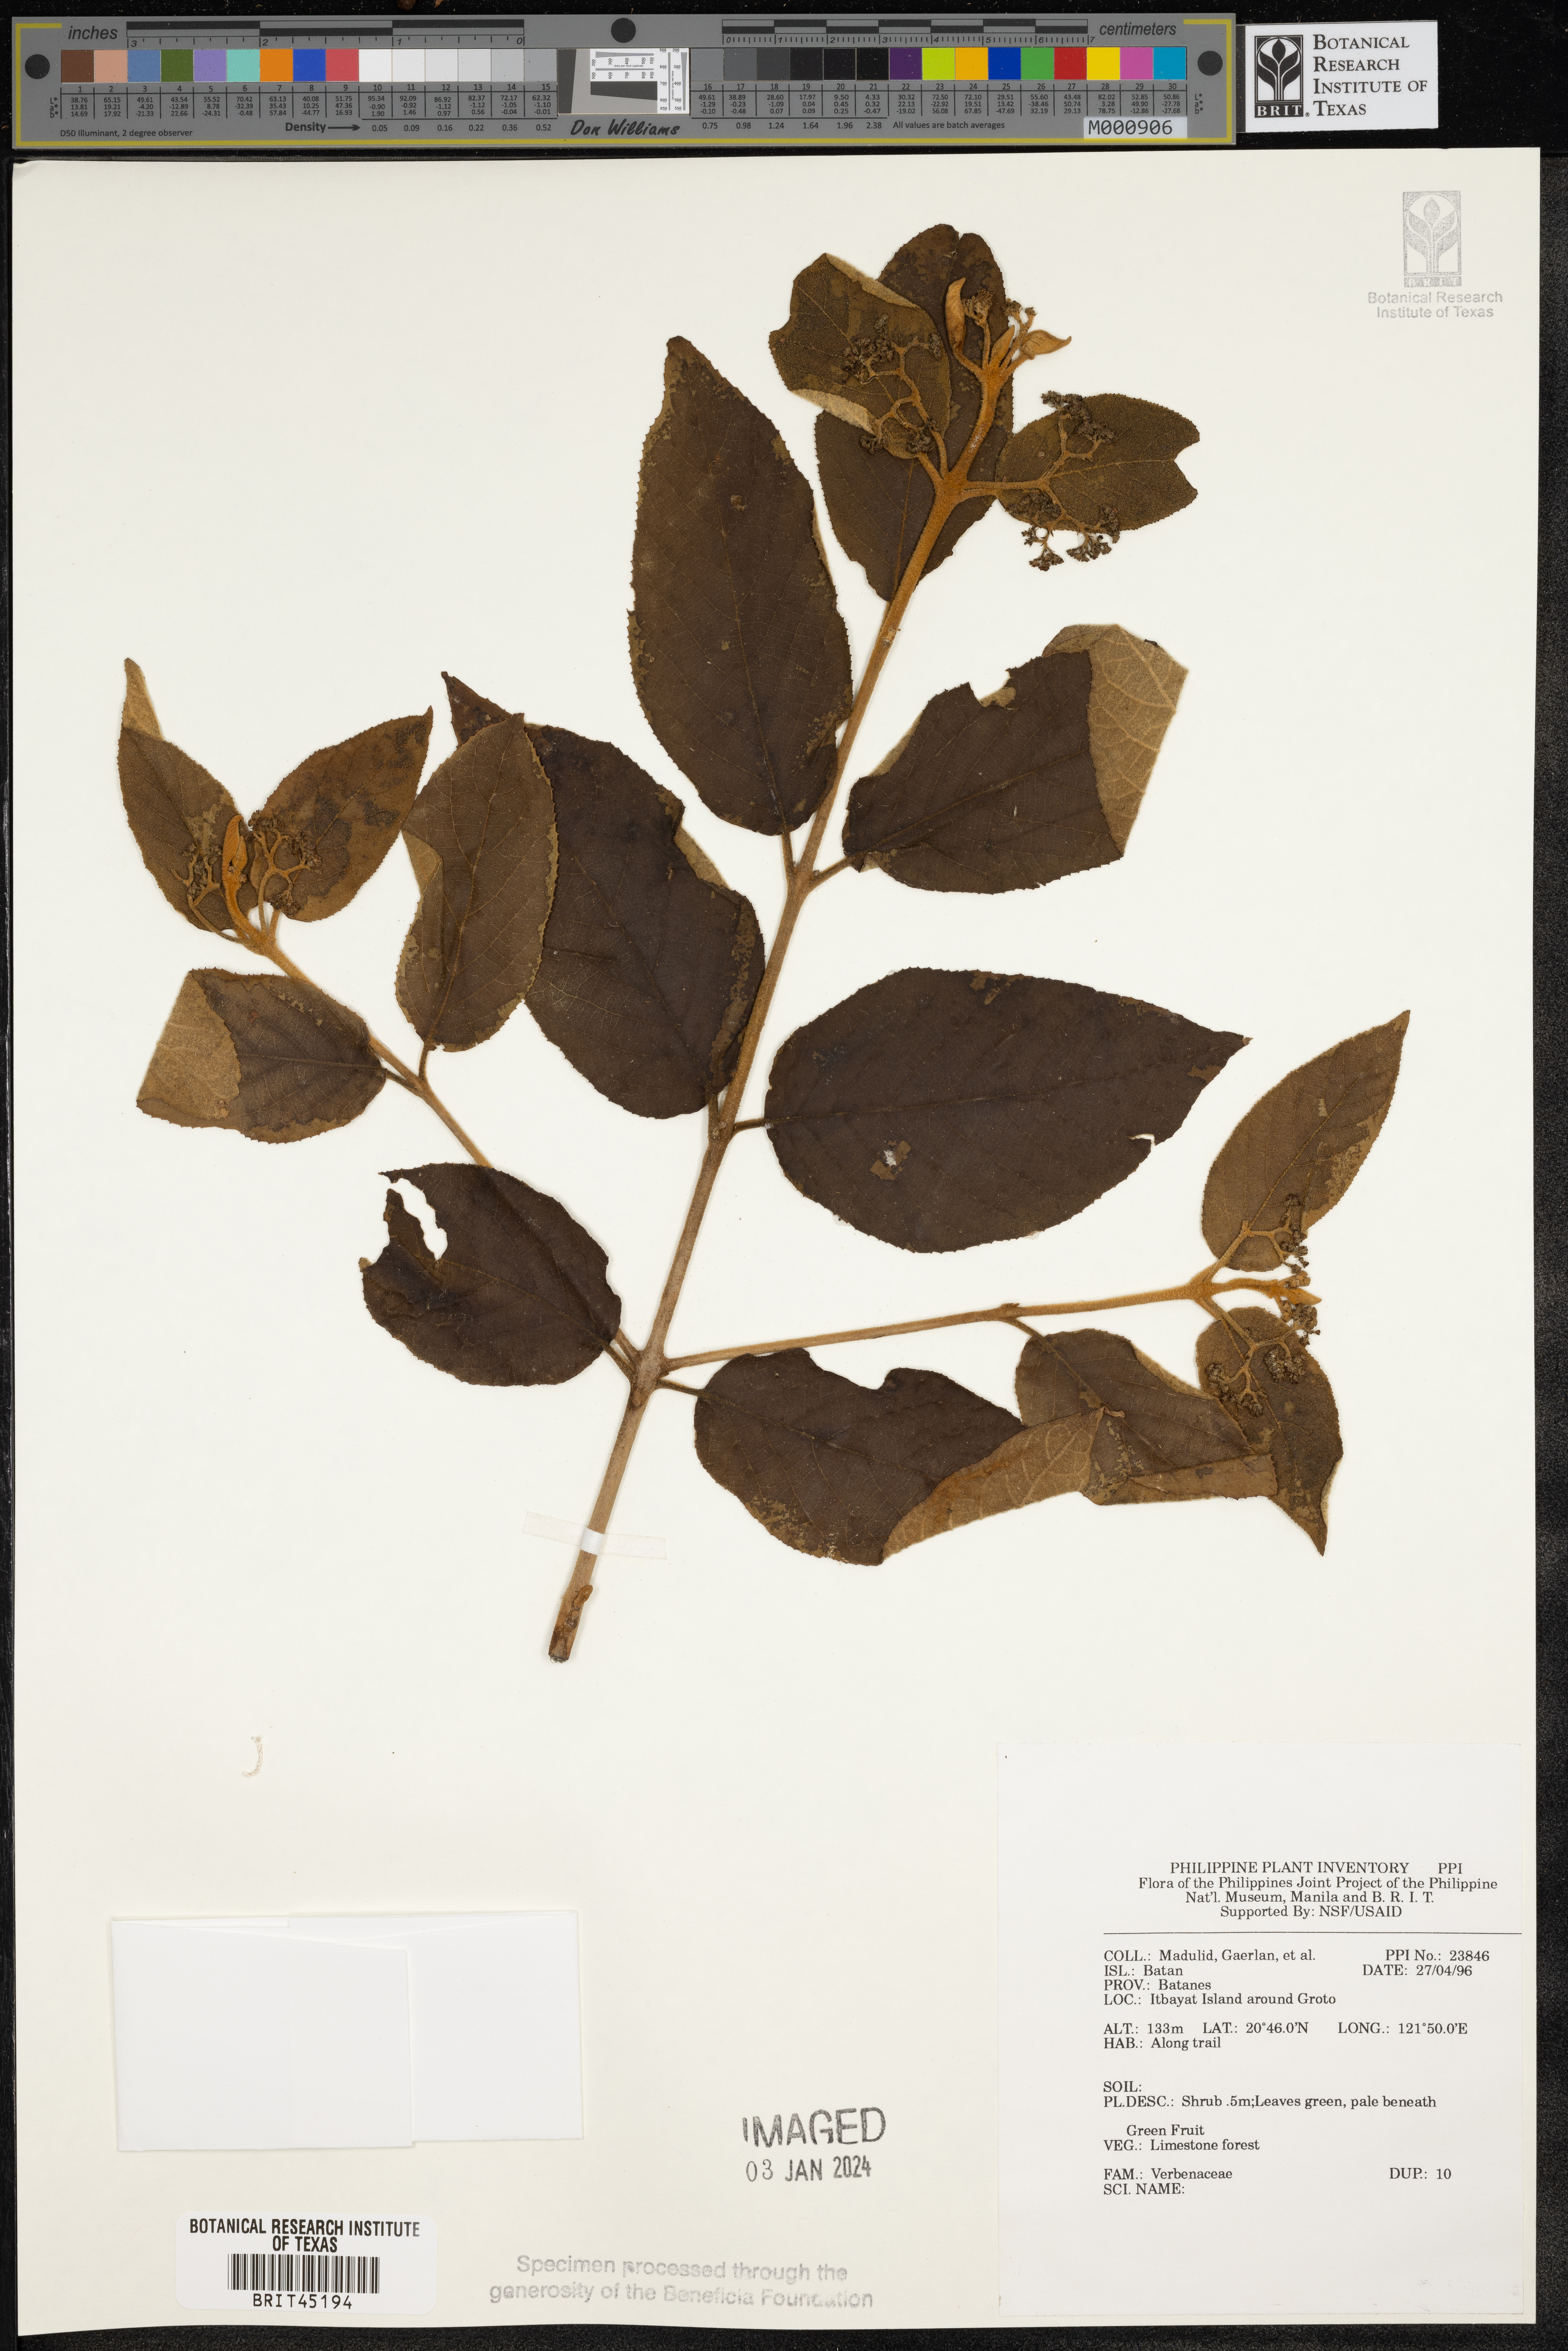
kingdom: Plantae
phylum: Tracheophyta
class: Magnoliopsida
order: Lamiales
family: Verbenaceae
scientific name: Verbenaceae
